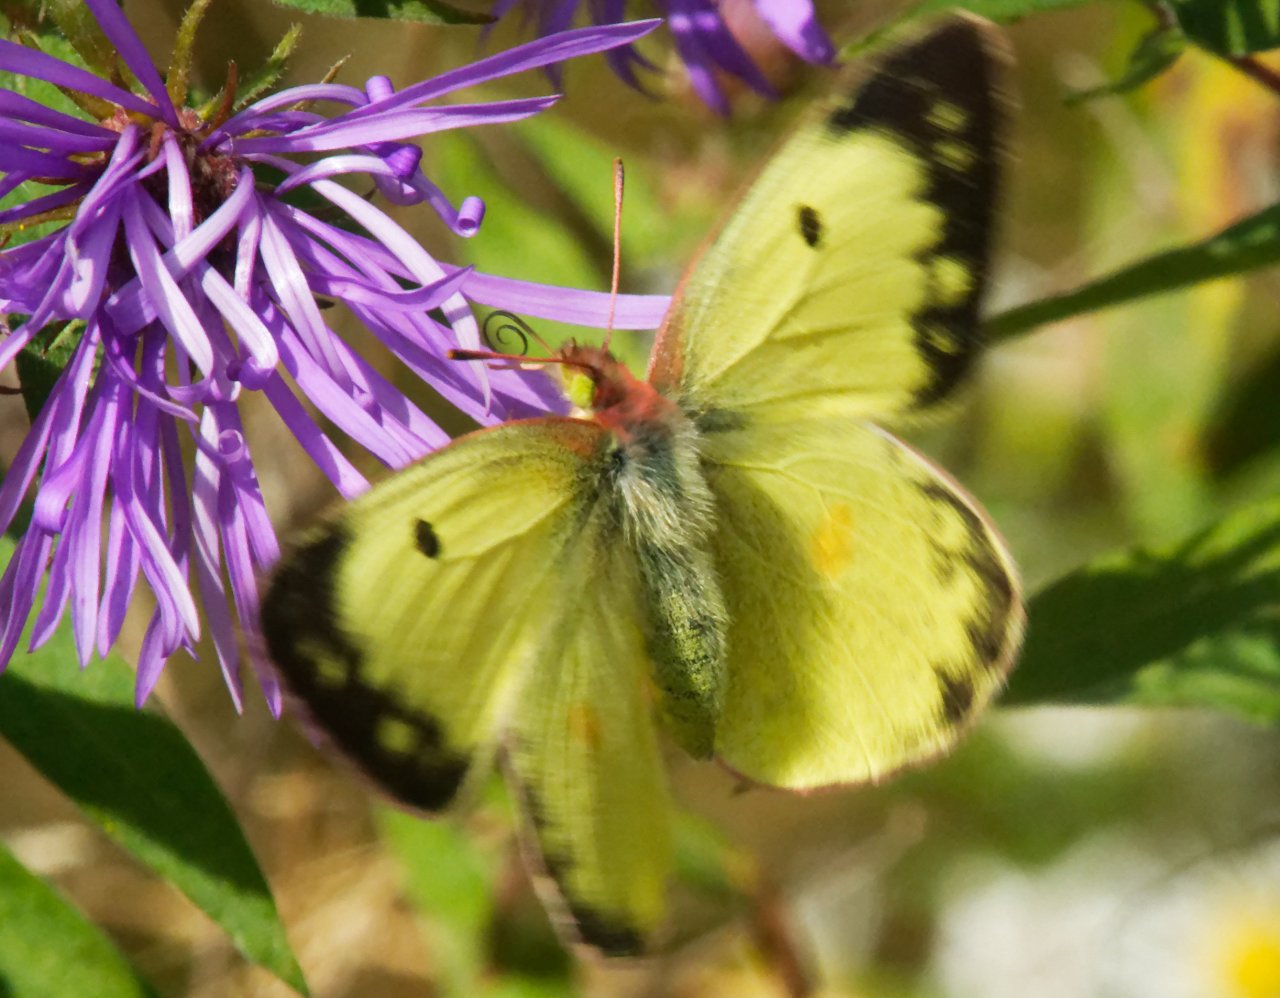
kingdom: Animalia
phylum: Arthropoda
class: Insecta
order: Lepidoptera
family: Pieridae
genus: Colias
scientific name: Colias philodice
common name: Clouded Sulphur
